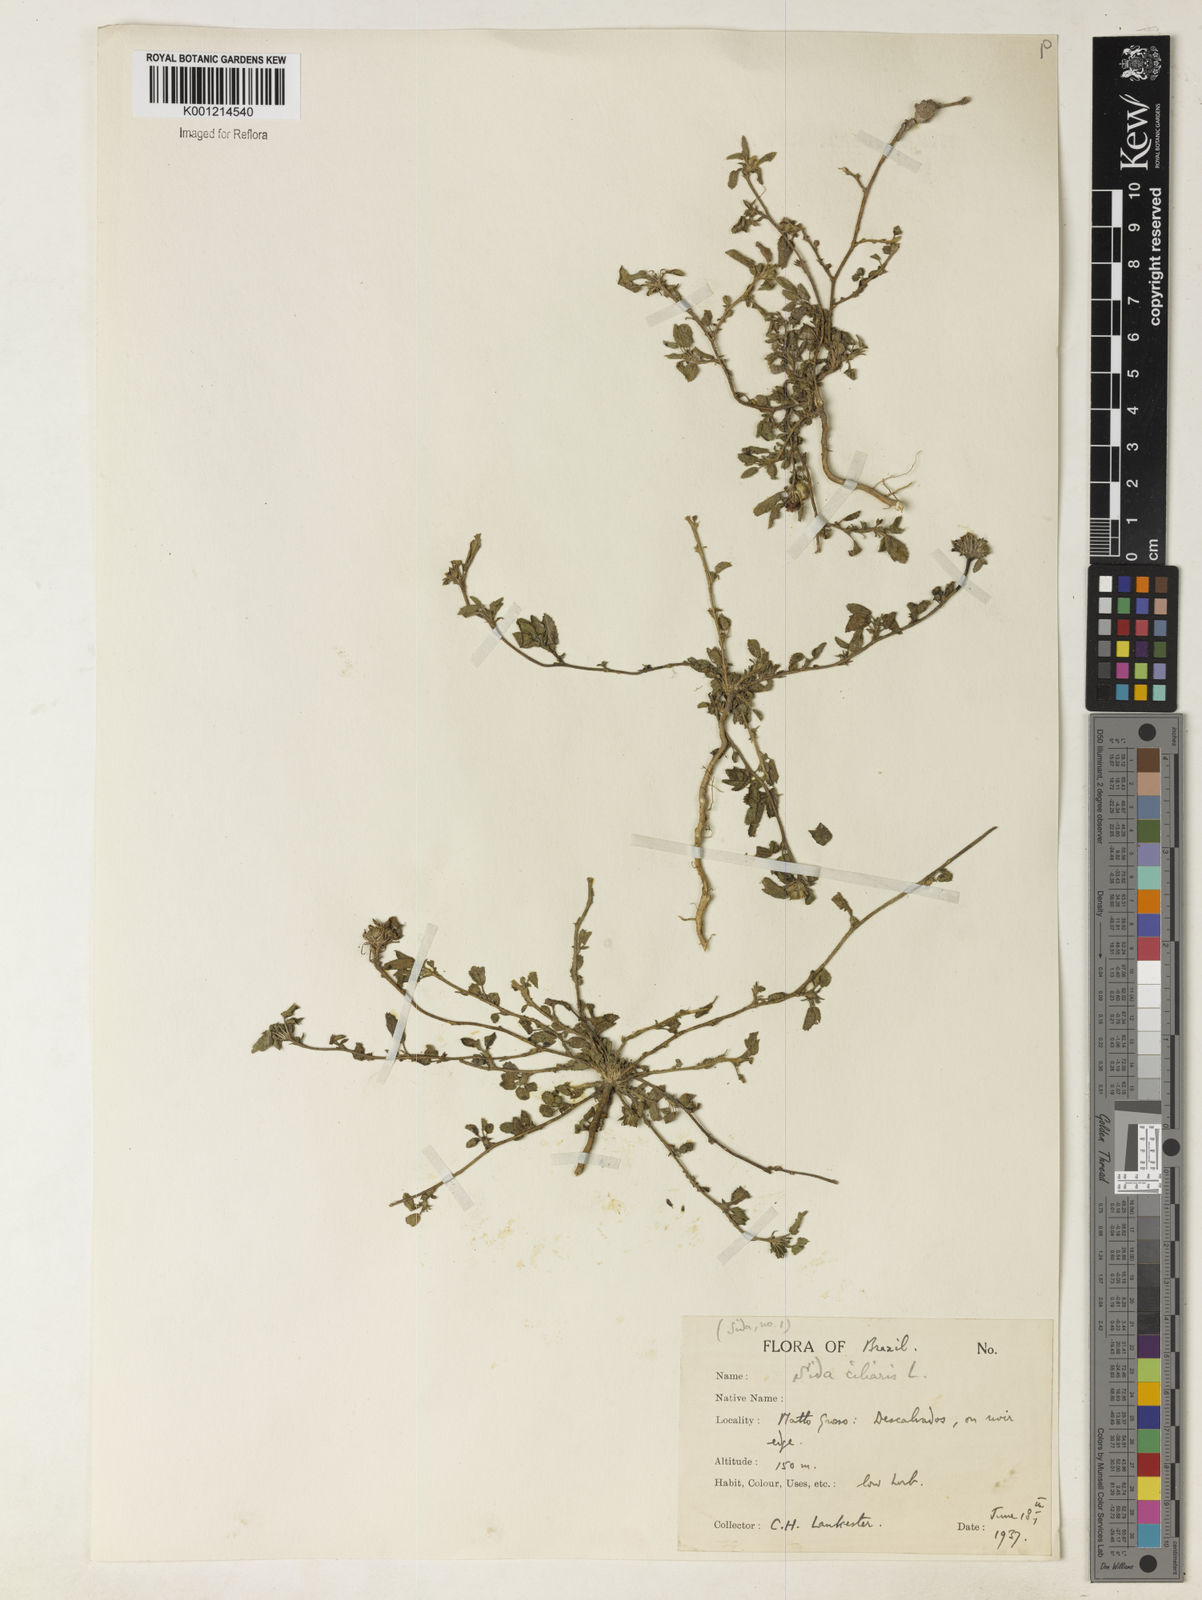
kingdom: Plantae
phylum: Tracheophyta
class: Magnoliopsida
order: Malvales
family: Malvaceae
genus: Sida
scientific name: Sida ciliaris
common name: Bracted fanpetals
